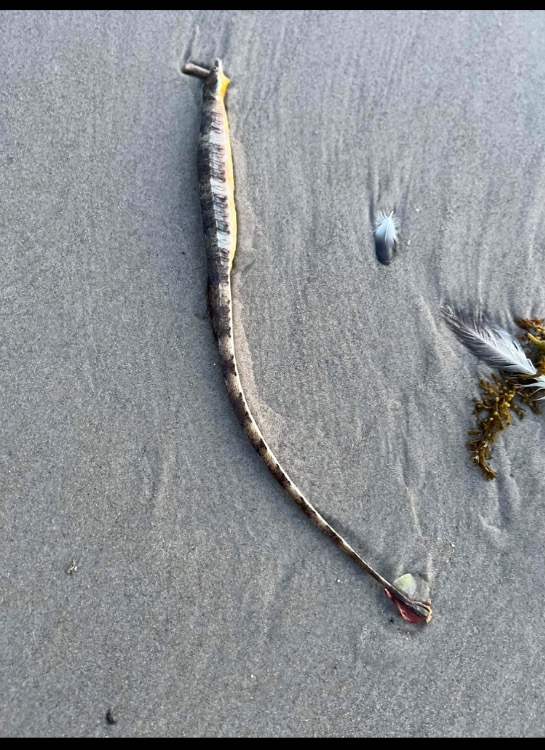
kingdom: Animalia
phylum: Chordata
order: Syngnathiformes
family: Syngnathidae
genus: Syngnathus
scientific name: Syngnathus acus
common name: Stor tangnål
